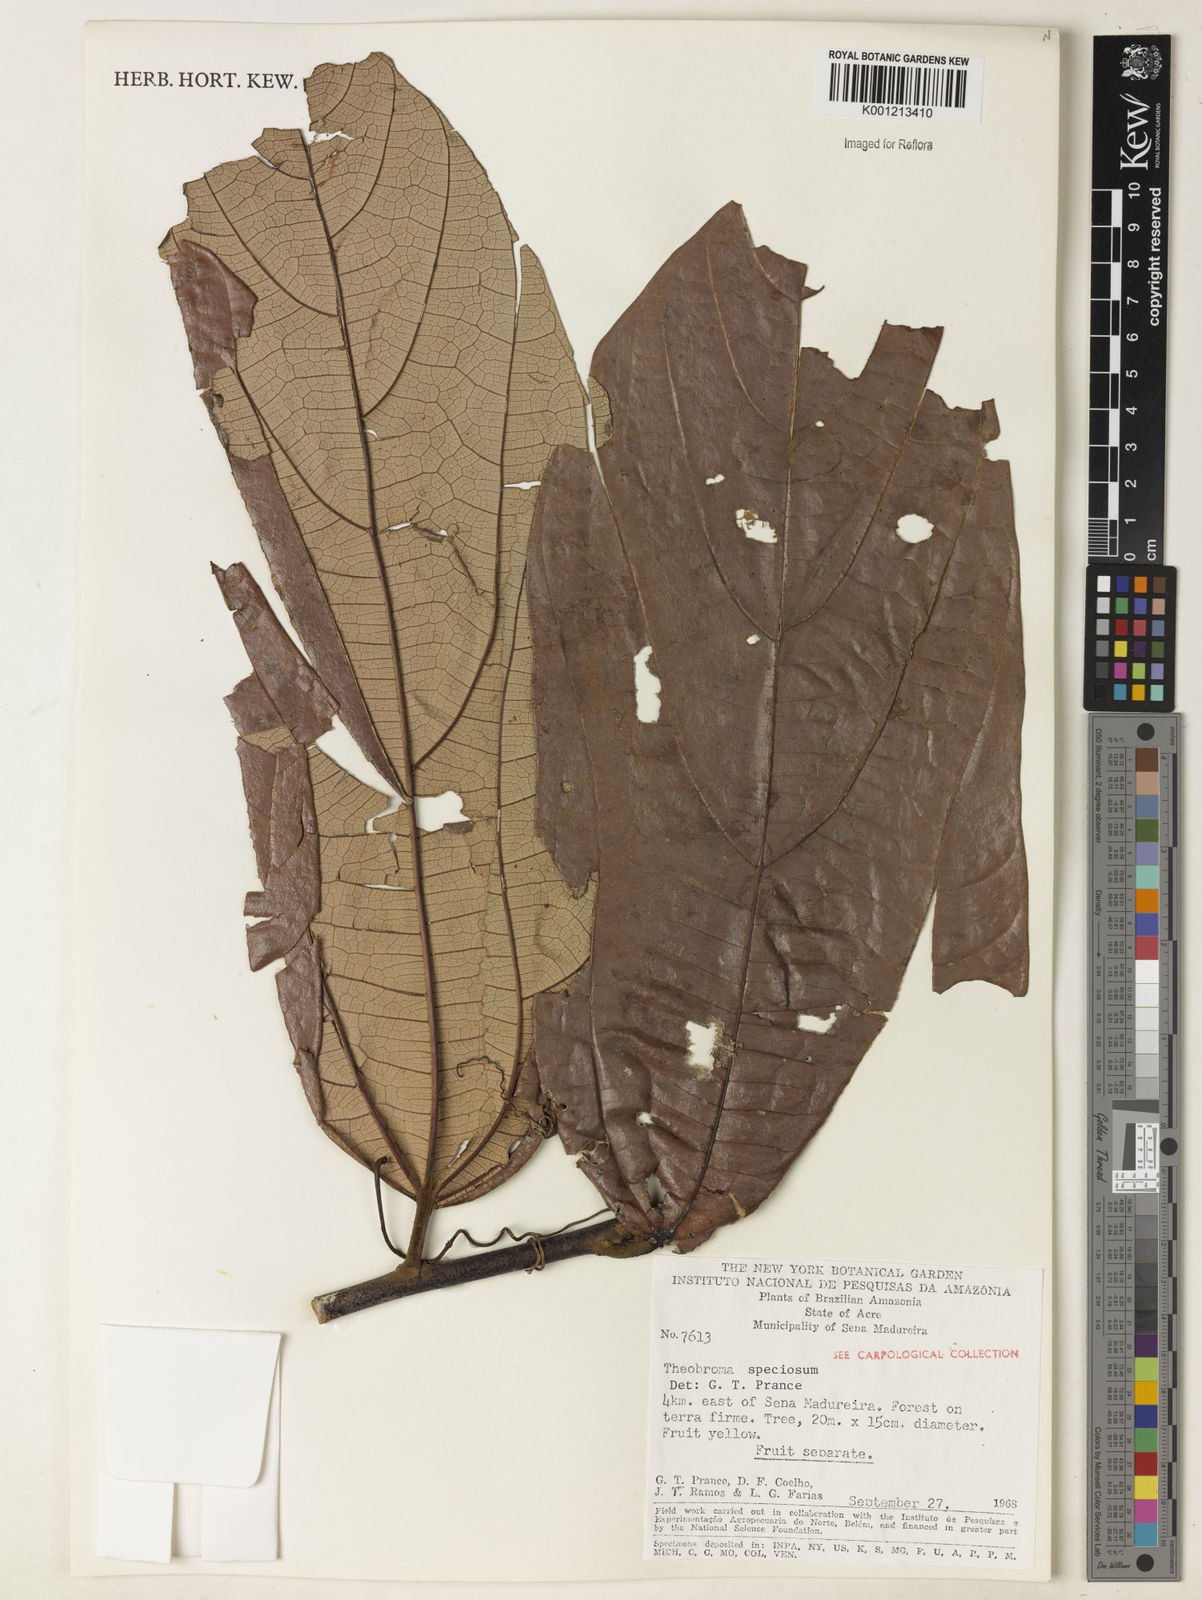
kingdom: Plantae
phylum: Tracheophyta
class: Magnoliopsida
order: Malvales
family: Malvaceae
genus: Theobroma
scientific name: Theobroma speciosum
